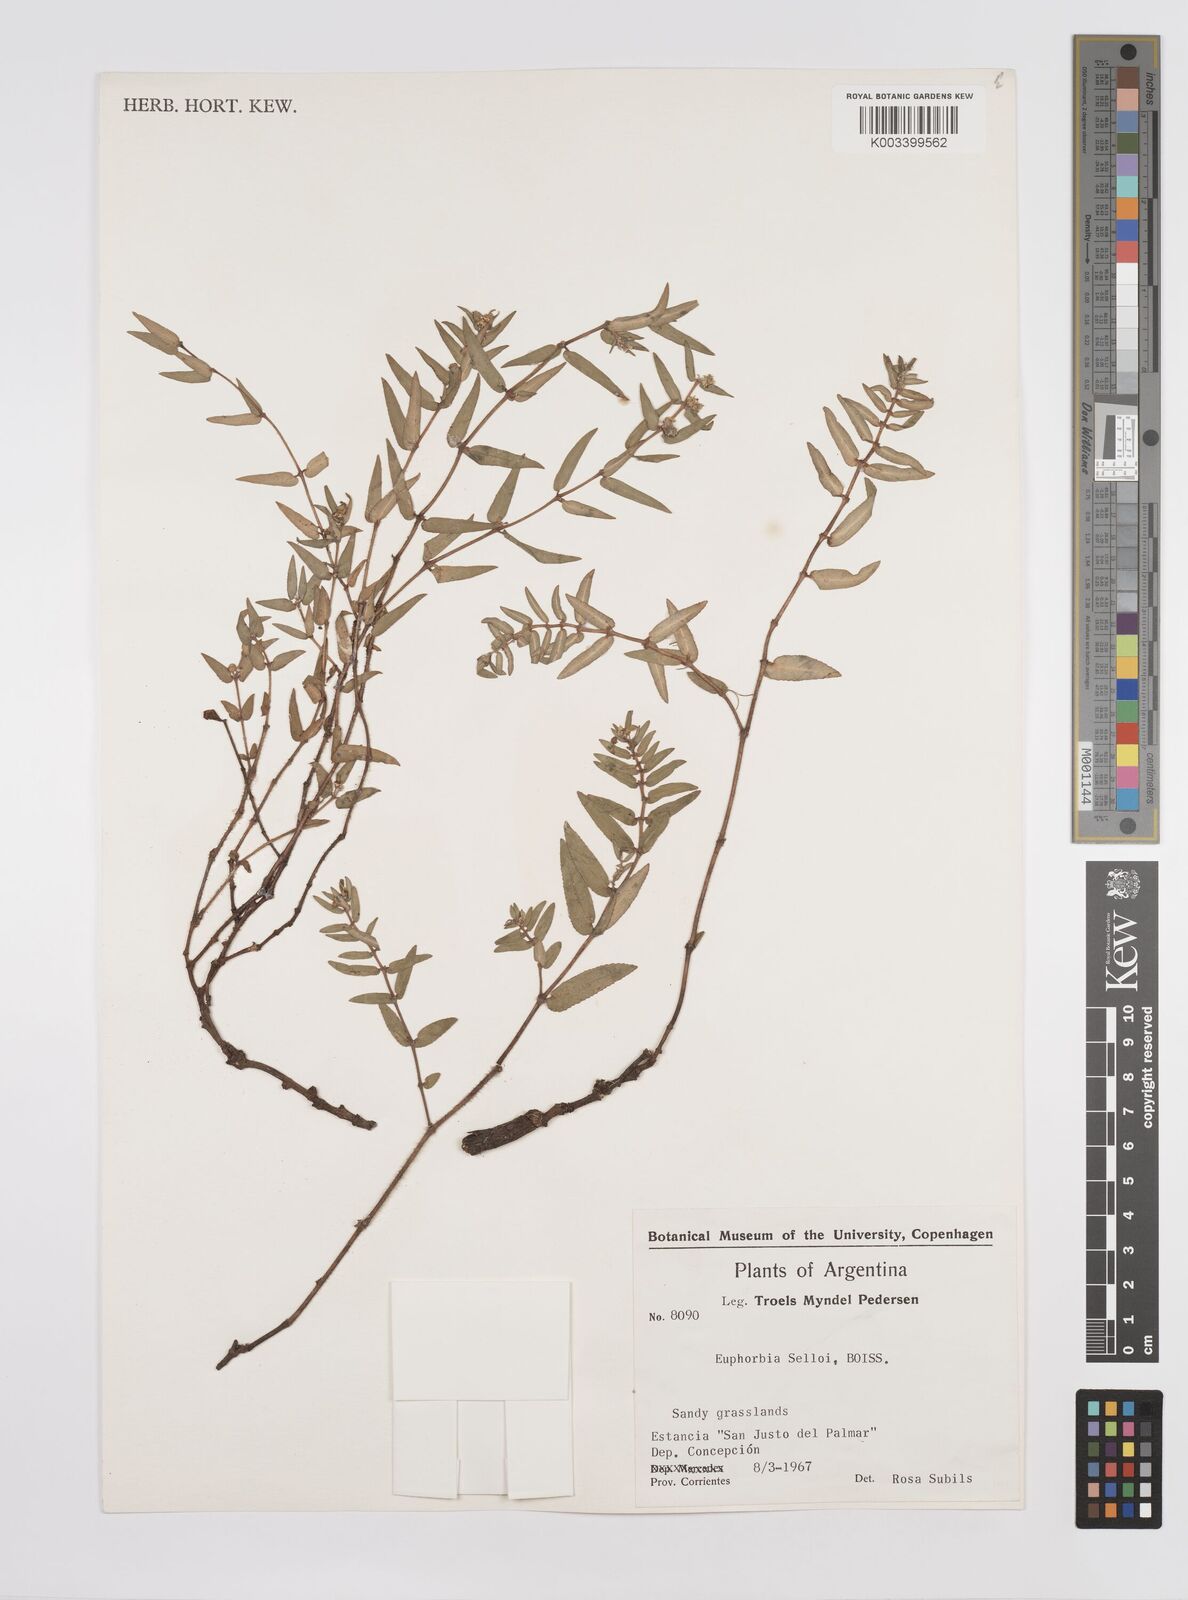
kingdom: Plantae
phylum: Tracheophyta
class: Magnoliopsida
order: Malpighiales
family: Euphorbiaceae
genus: Euphorbia
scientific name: Euphorbia selloi
